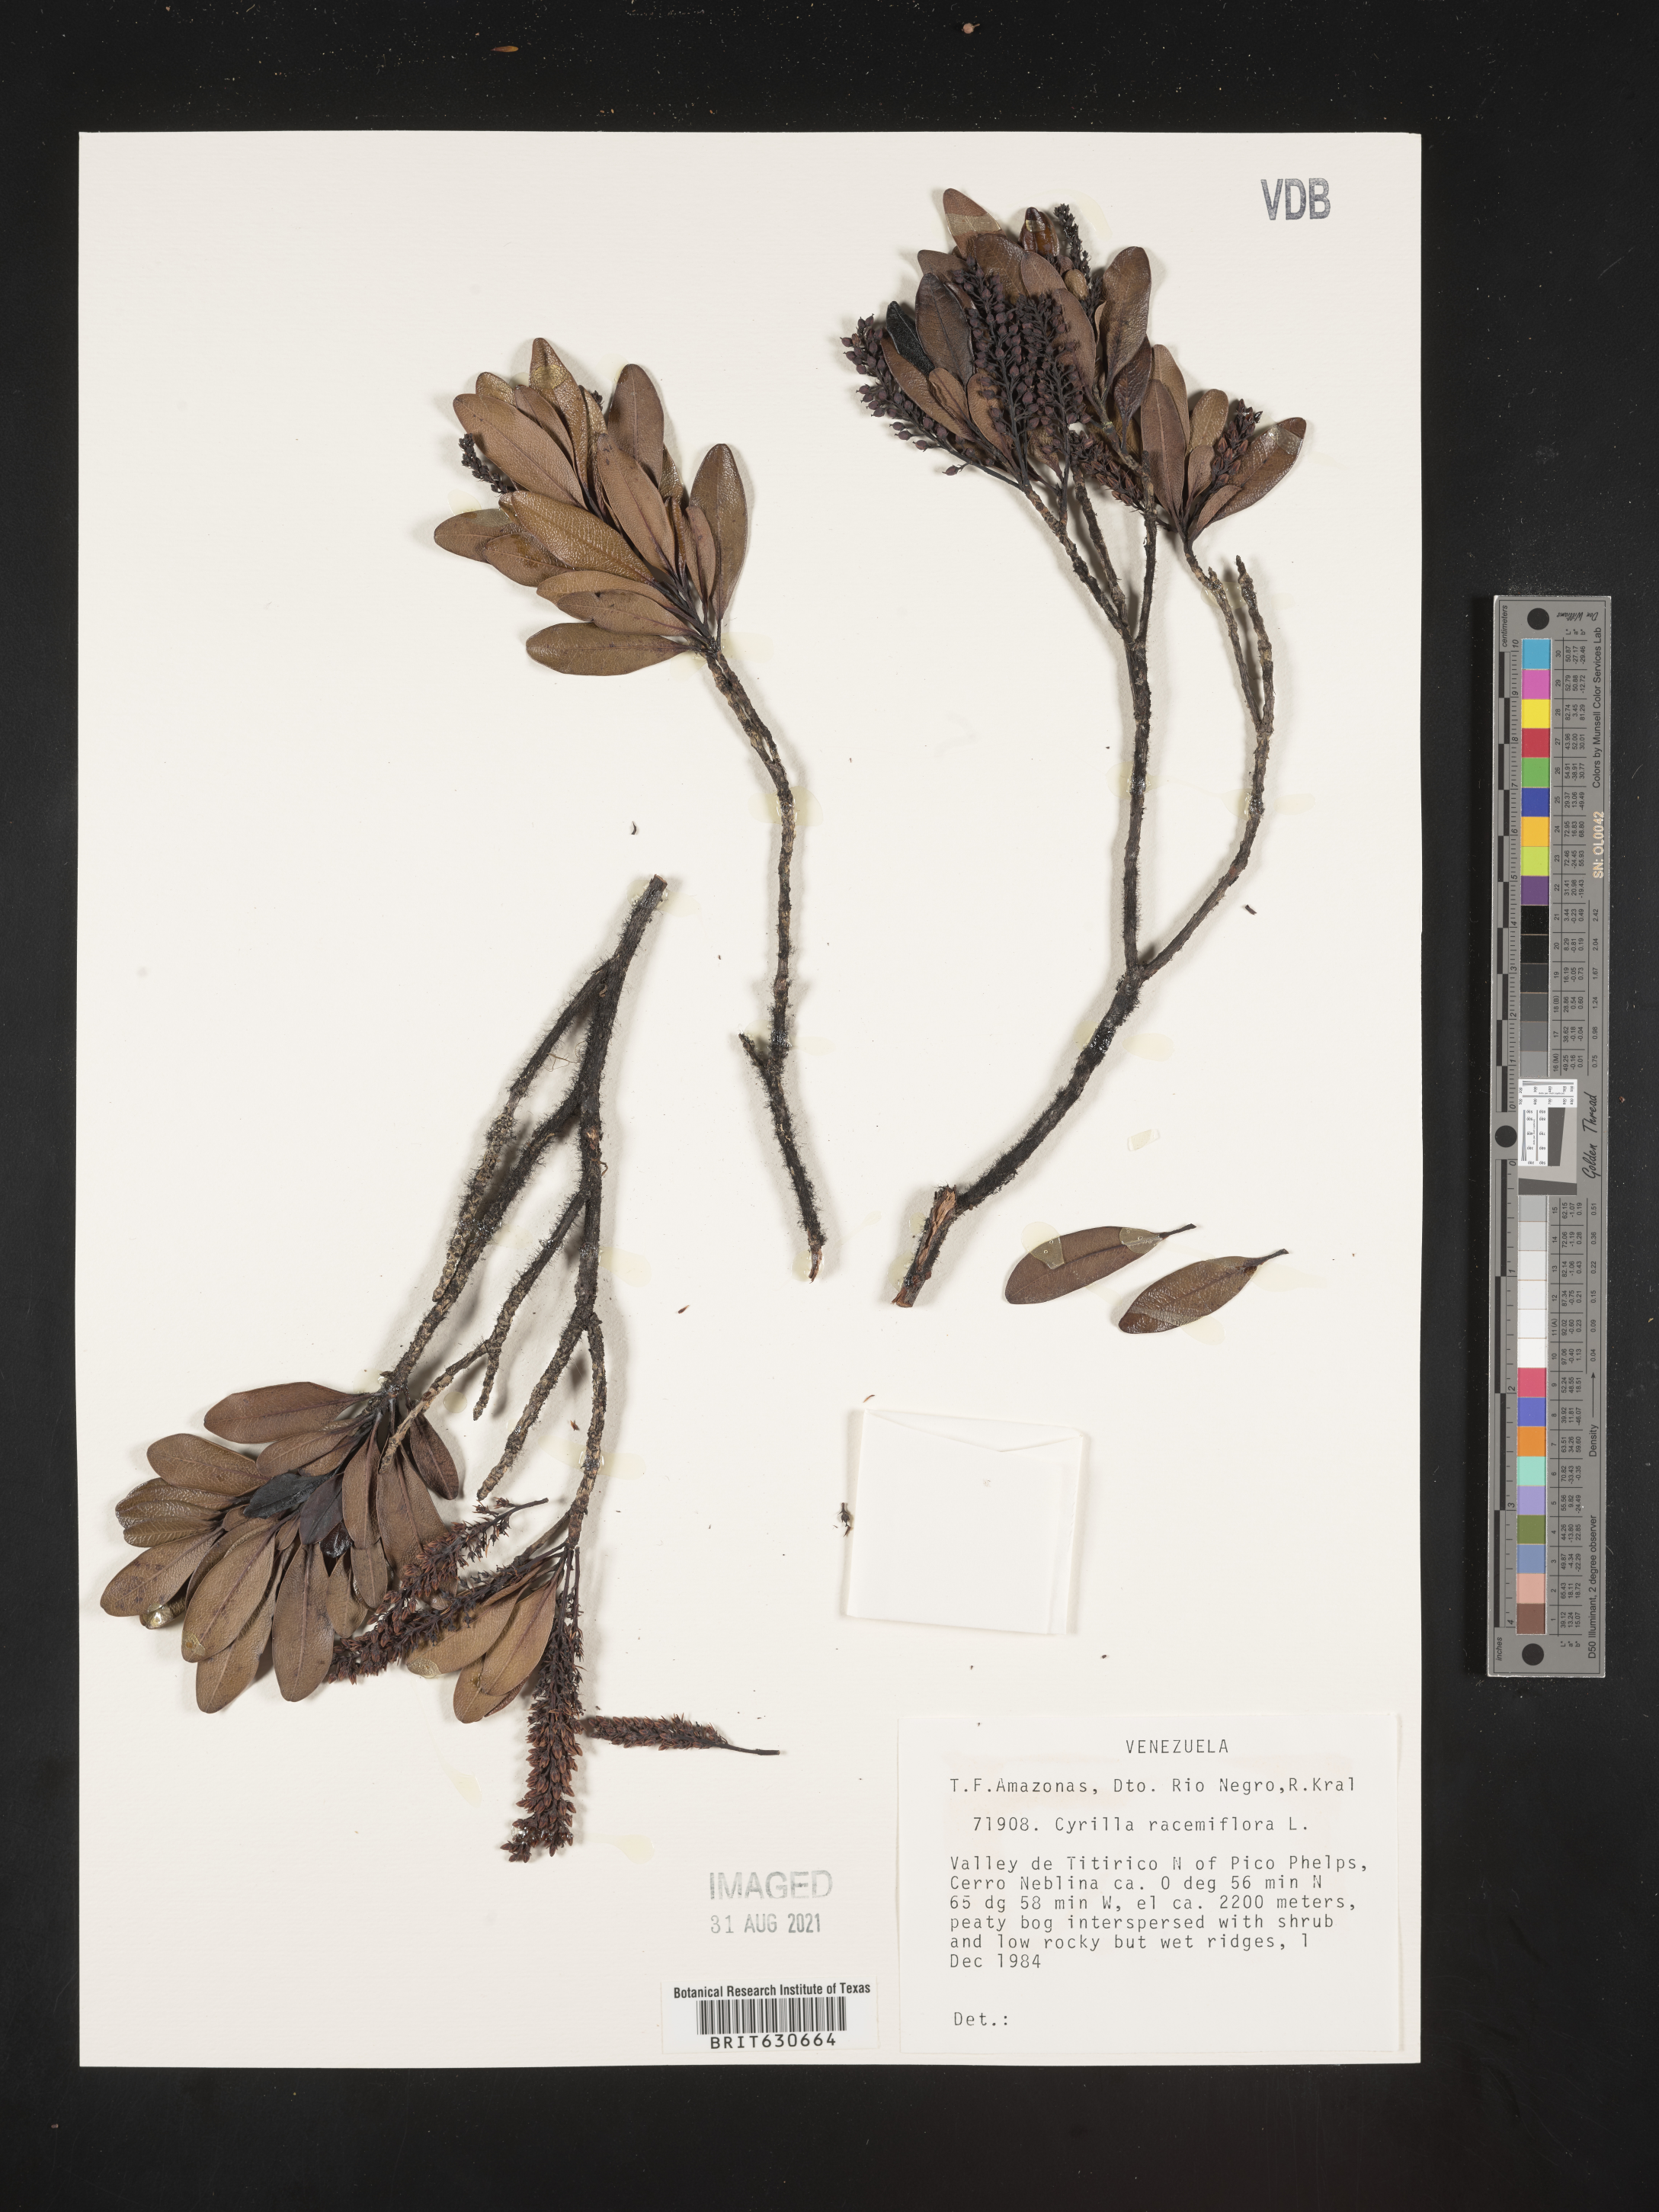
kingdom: Plantae
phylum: Tracheophyta
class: Magnoliopsida
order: Ericales
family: Cyrillaceae
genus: Cyrilla
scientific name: Cyrilla racemiflora
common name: Black titi
